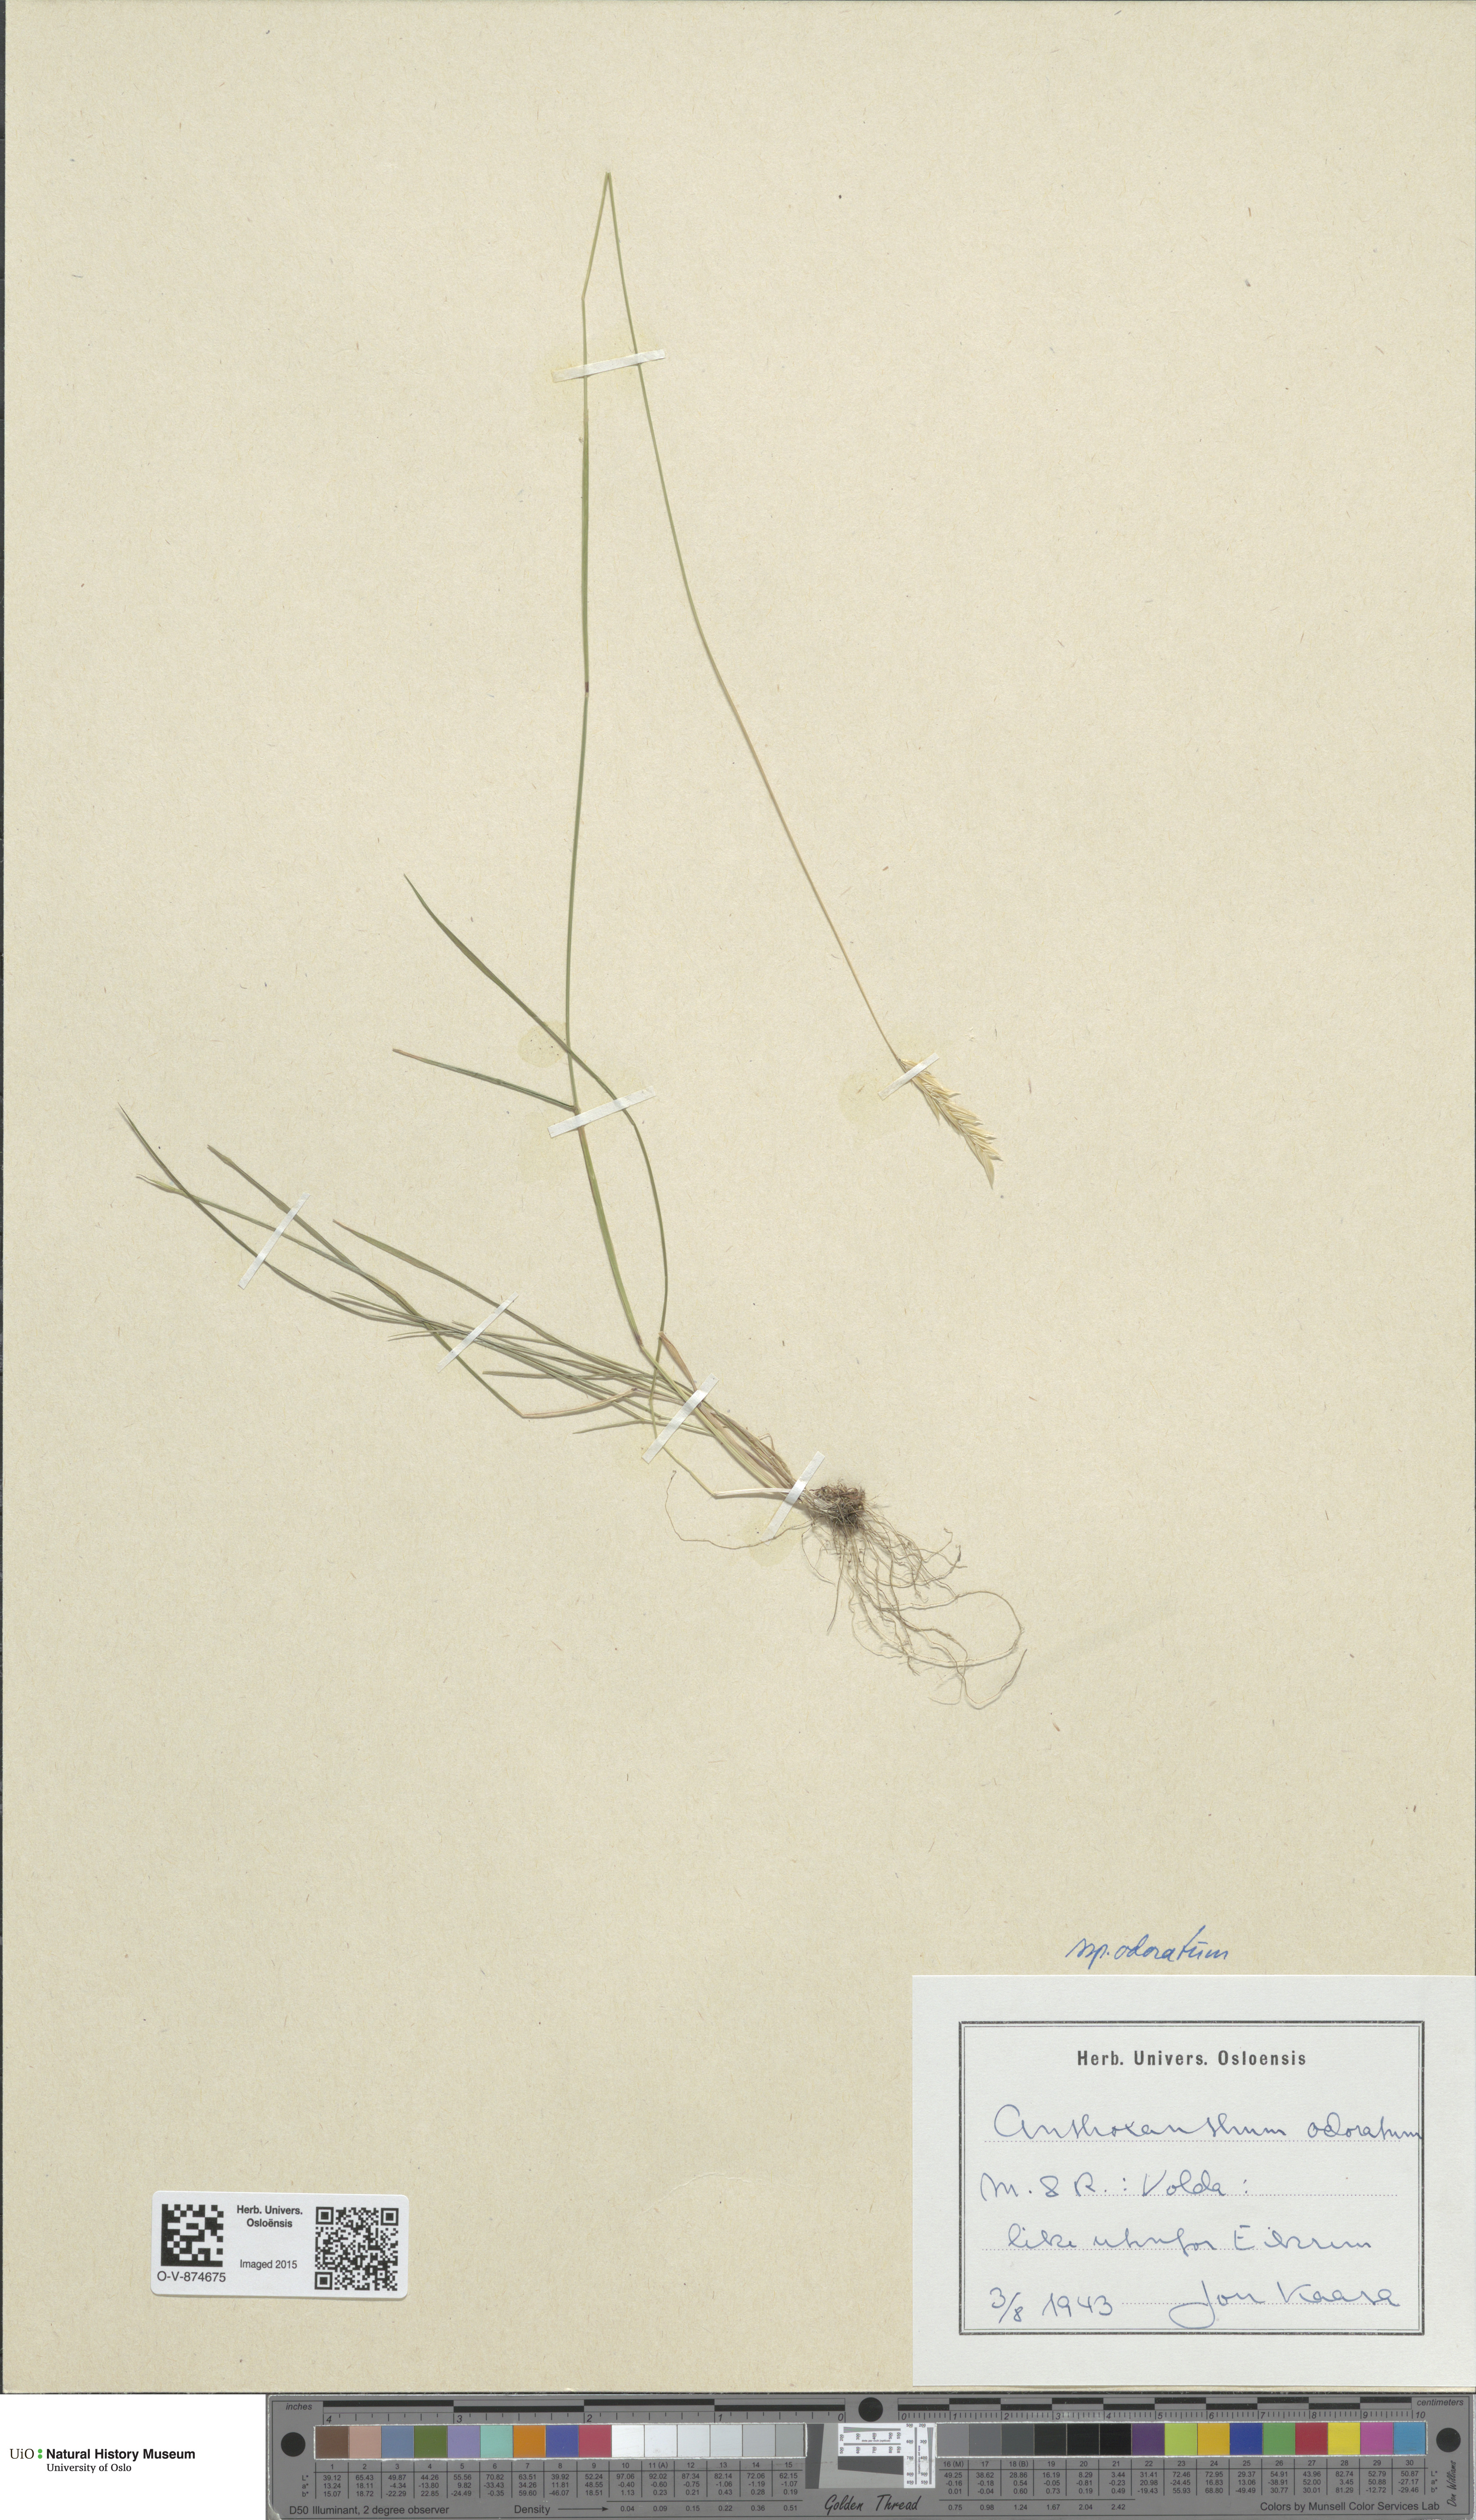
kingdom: Plantae
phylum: Tracheophyta
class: Magnoliopsida
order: Brassicales
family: Brassicaceae
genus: Boechera
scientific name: Boechera divaricarpa
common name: Divaricate rockcress
